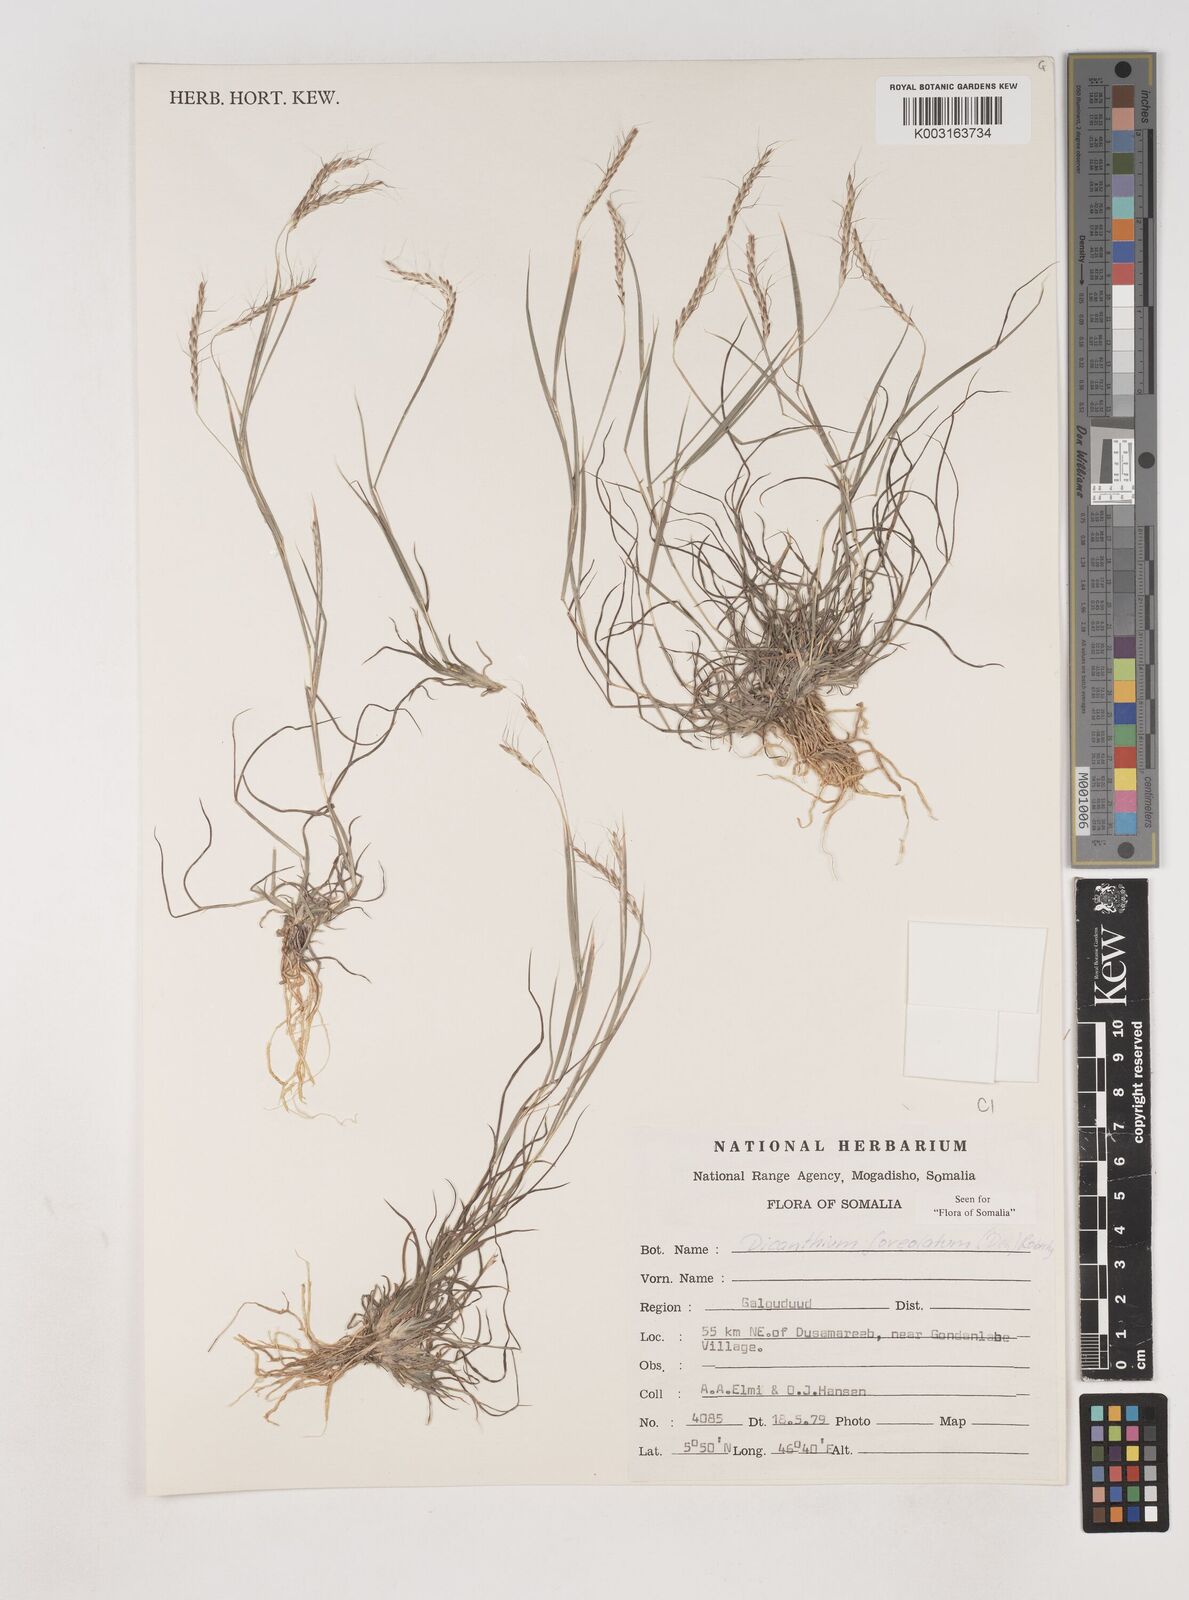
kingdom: Plantae
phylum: Tracheophyta
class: Liliopsida
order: Poales
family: Poaceae
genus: Dichanthium
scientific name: Dichanthium foveolatum
